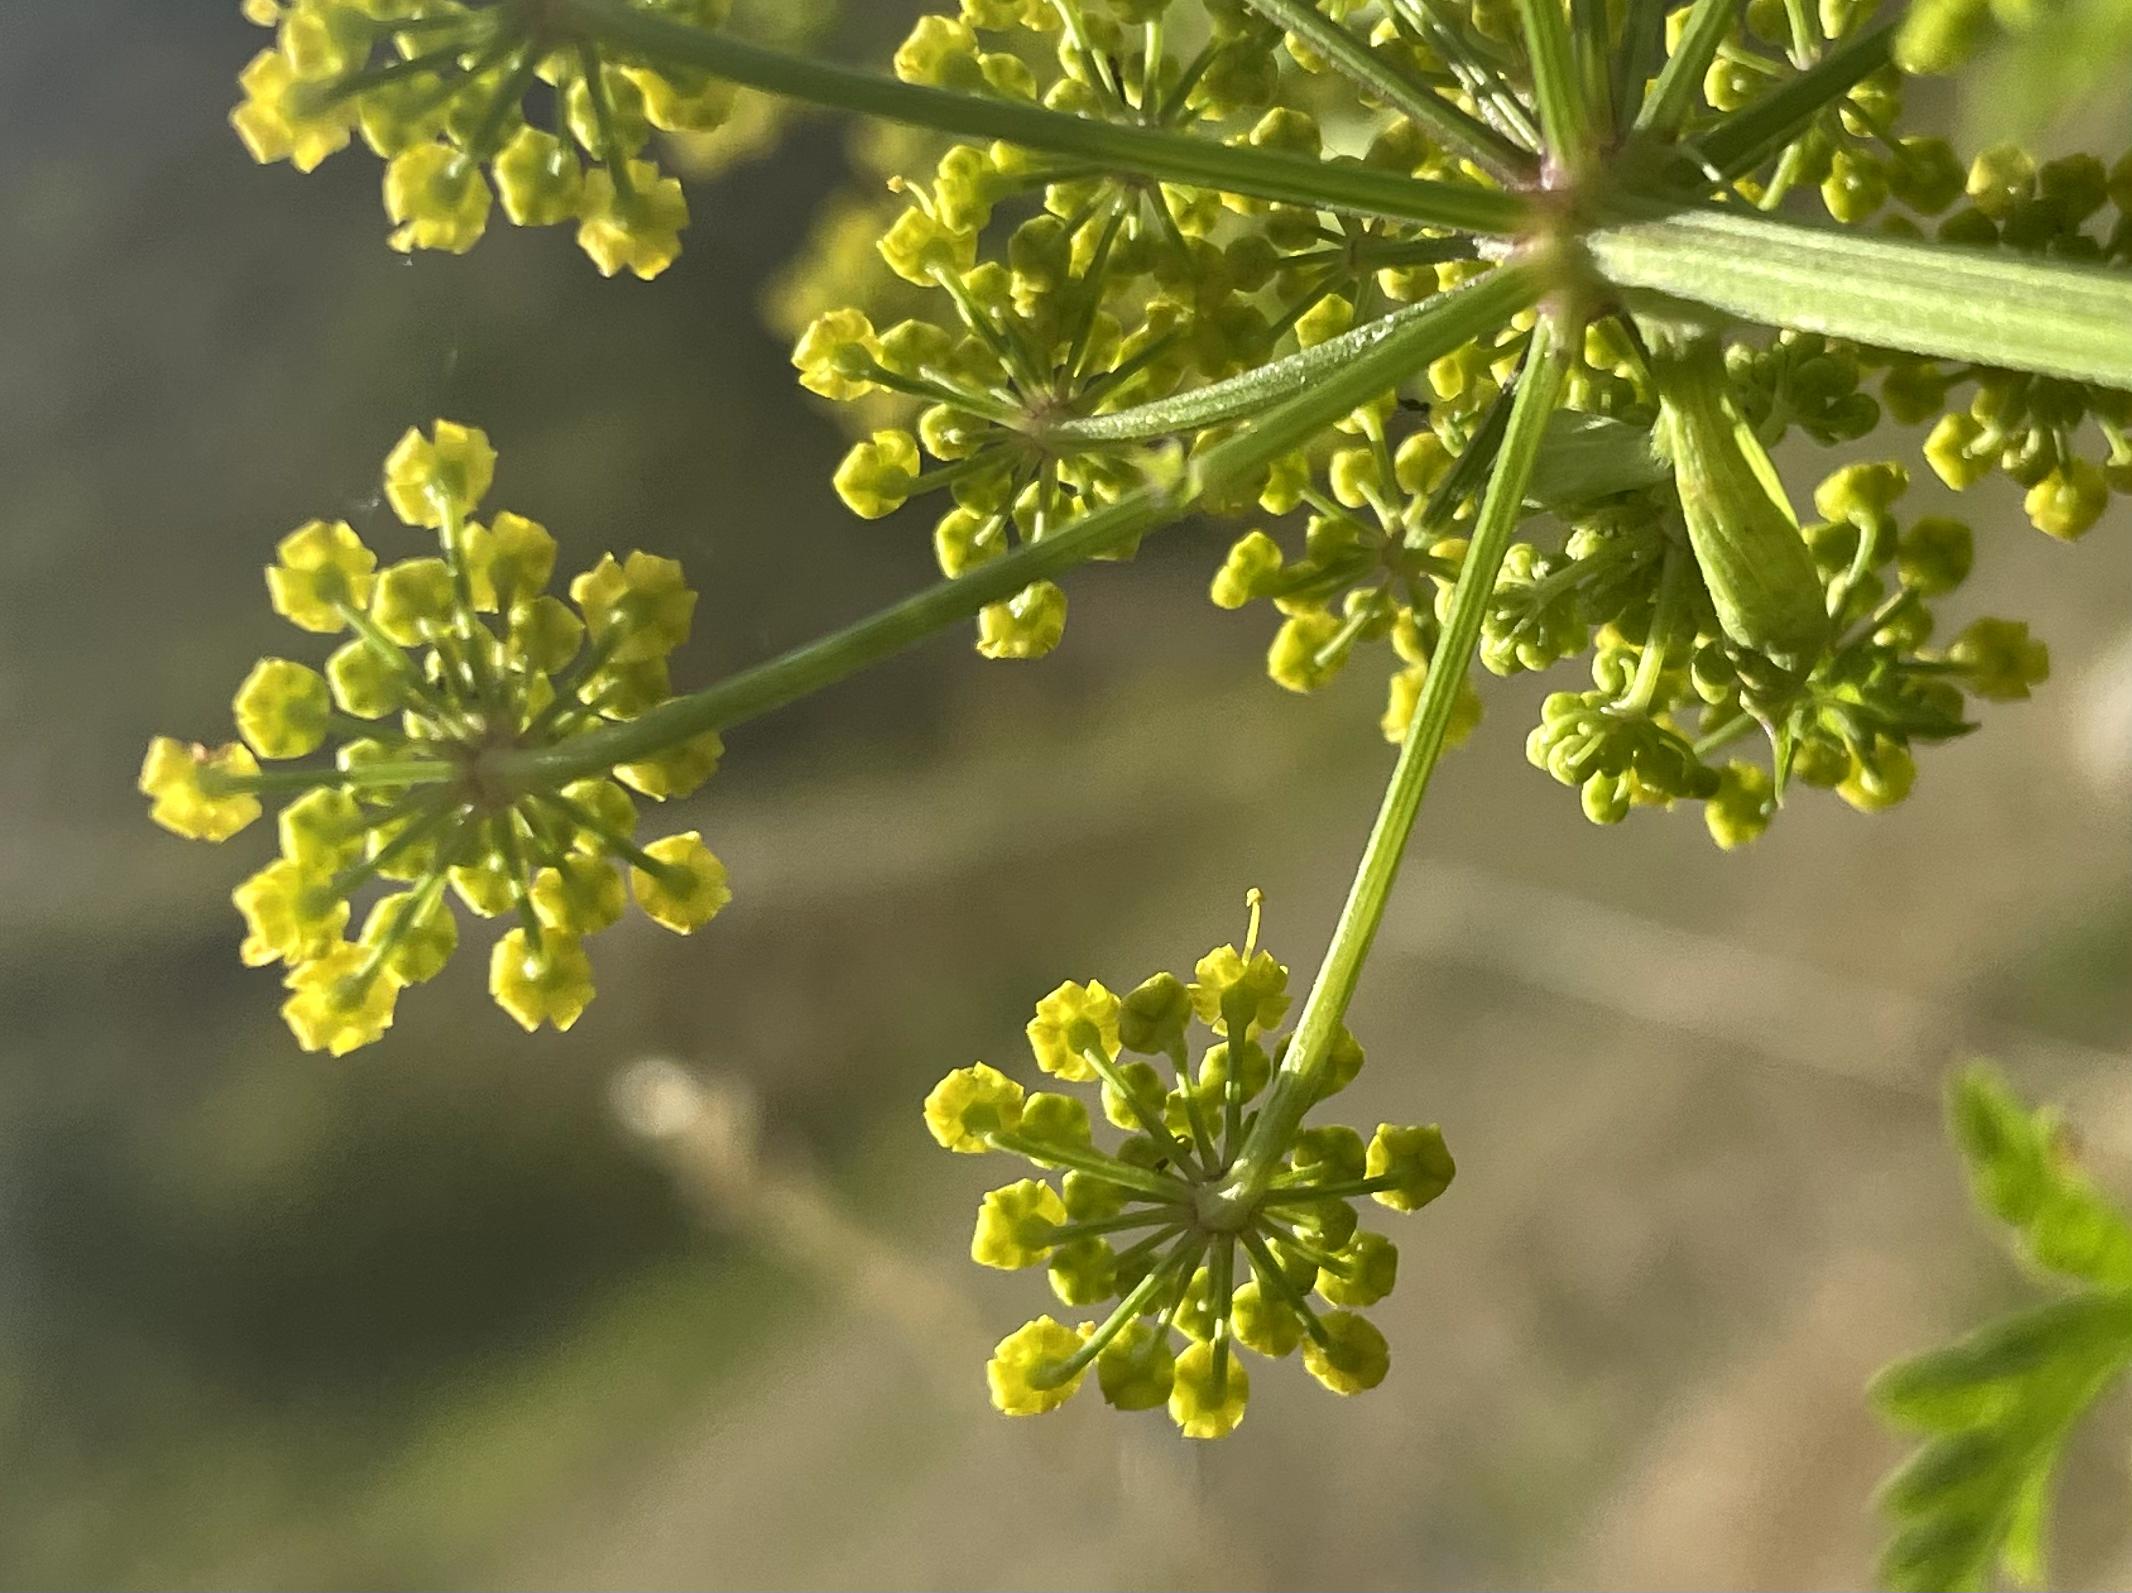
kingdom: Plantae
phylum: Tracheophyta
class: Magnoliopsida
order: Apiales
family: Apiaceae
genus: Pastinaca
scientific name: Pastinaca sativa
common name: Pastinak
